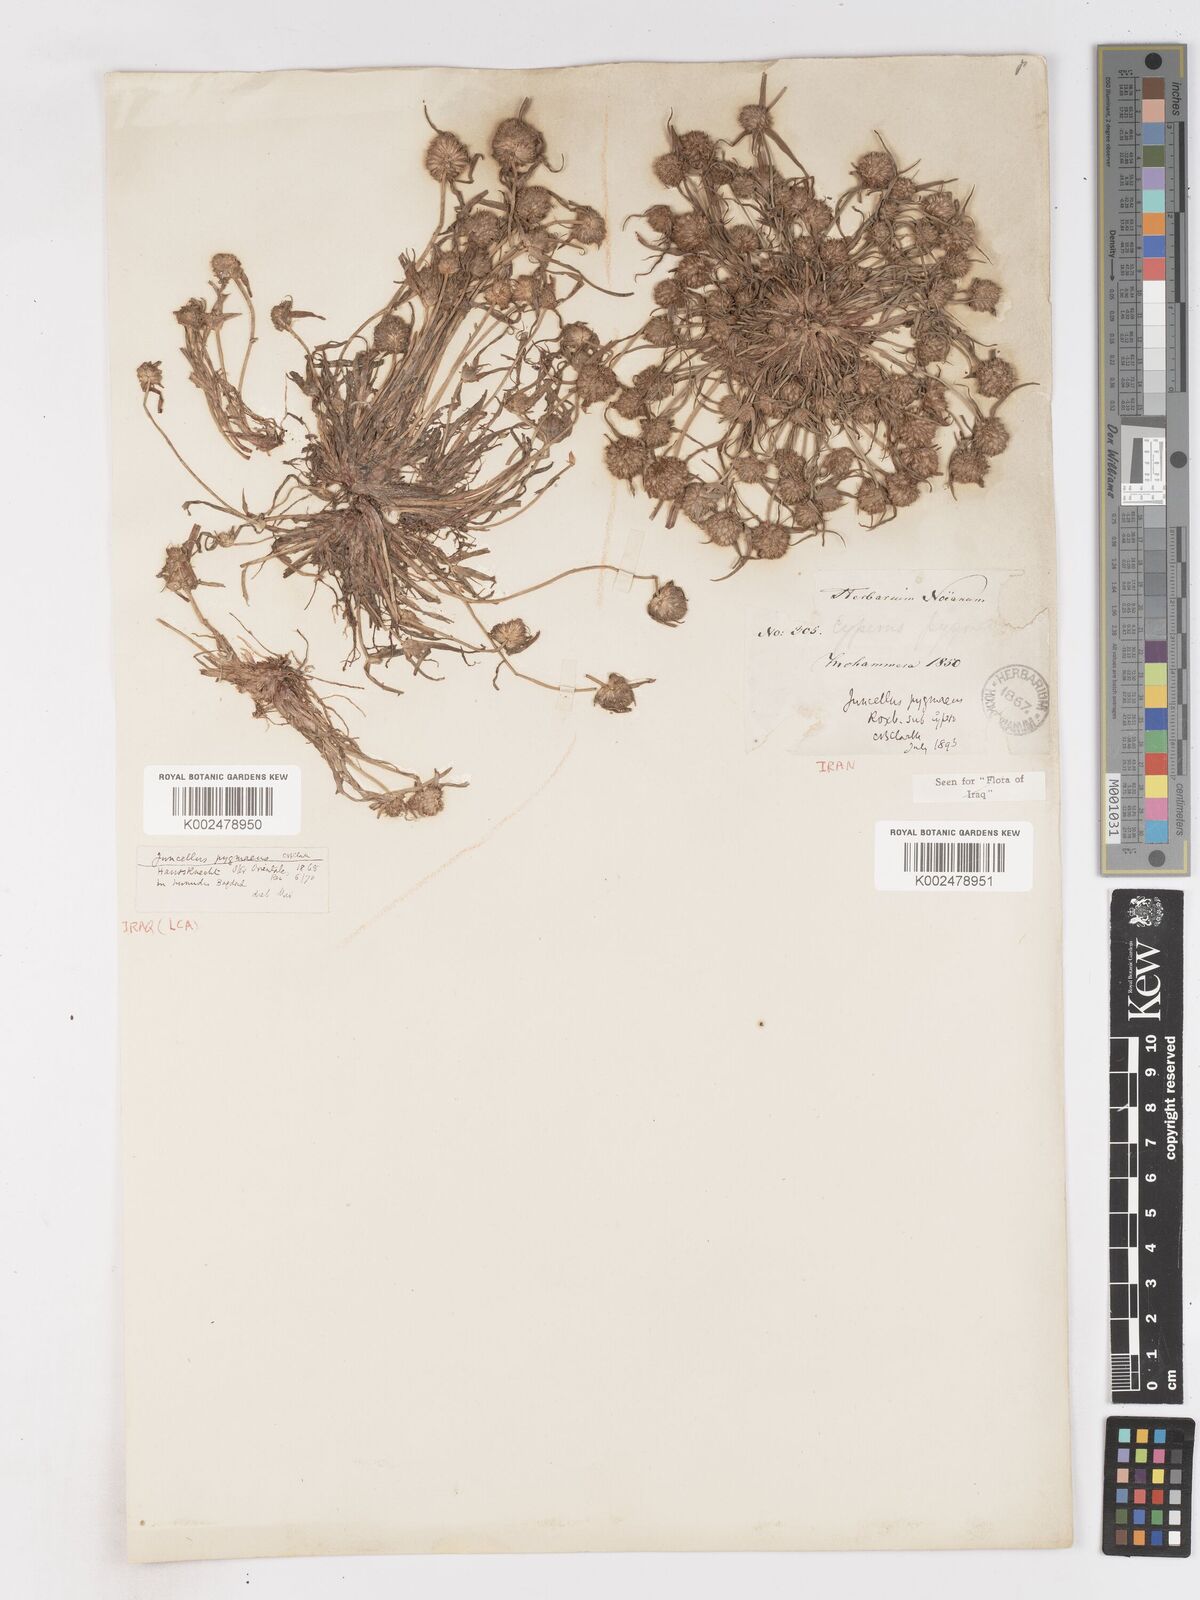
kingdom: Plantae
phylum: Tracheophyta
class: Liliopsida
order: Poales
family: Cyperaceae
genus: Cyperus
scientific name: Cyperus michelianus
